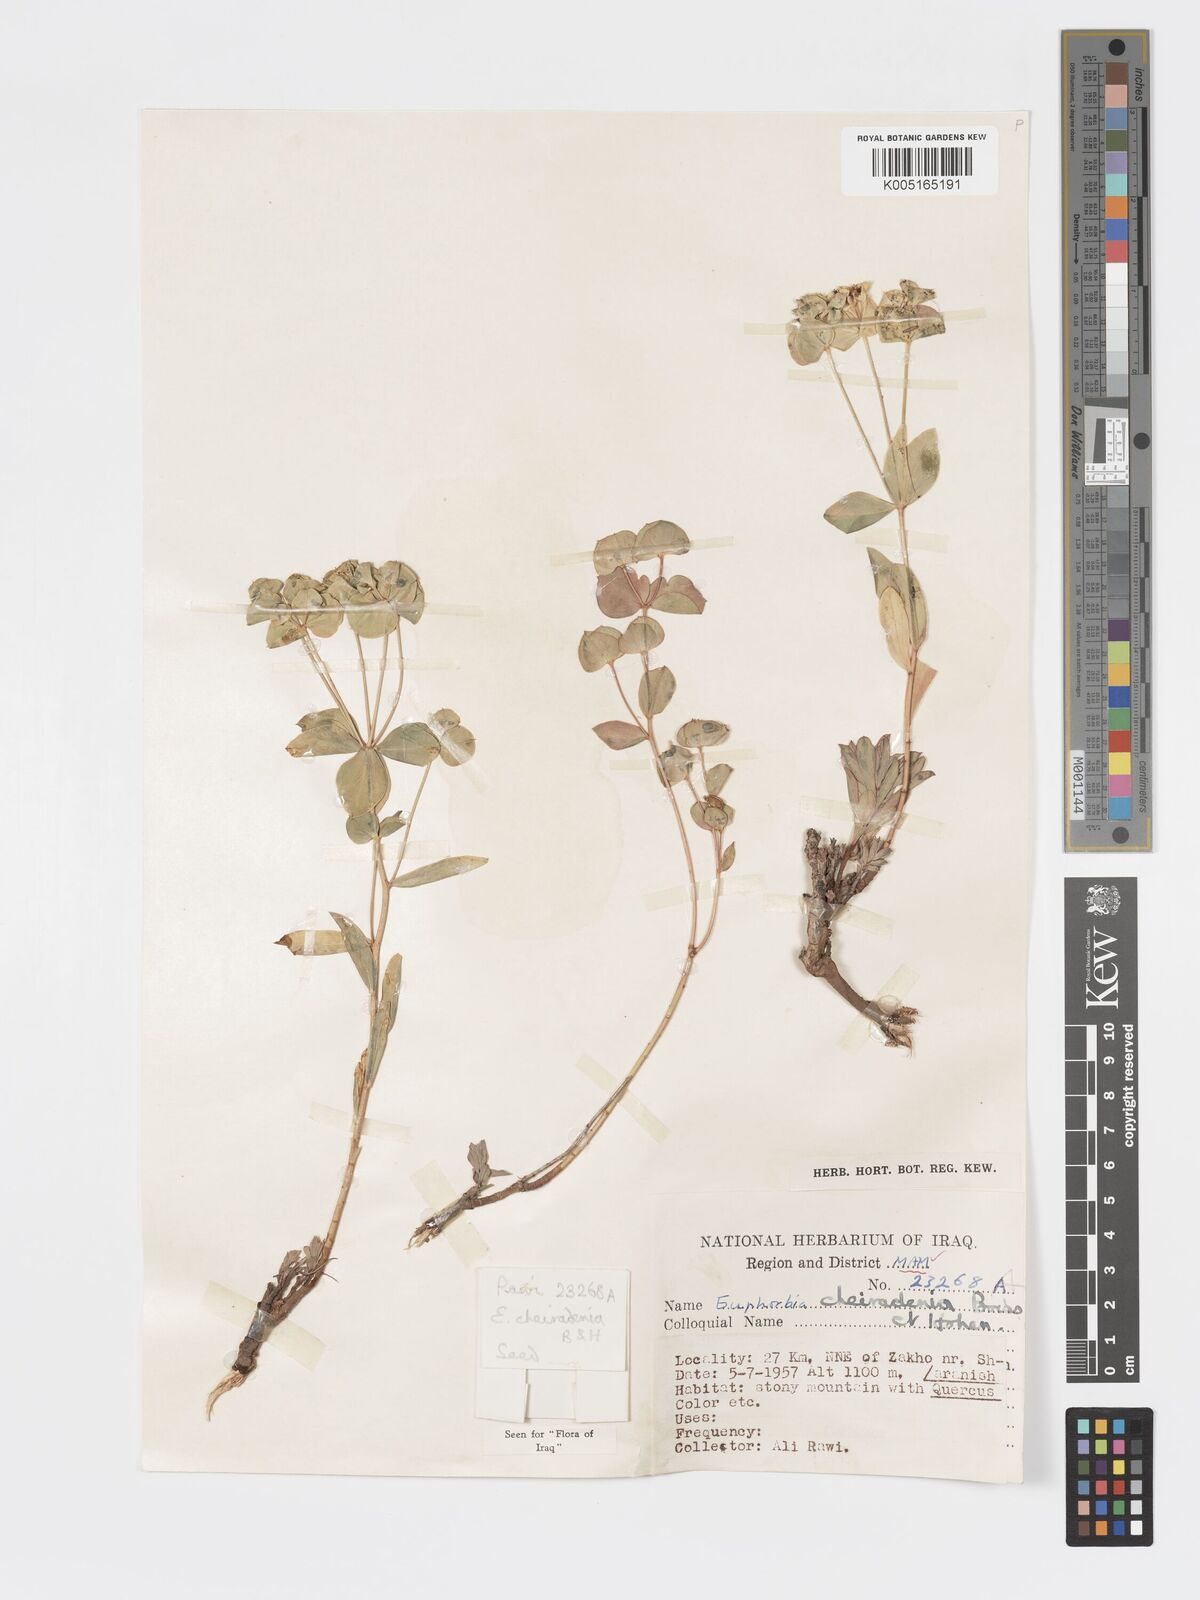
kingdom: Plantae
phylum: Tracheophyta
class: Magnoliopsida
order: Malpighiales
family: Euphorbiaceae
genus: Euphorbia
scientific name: Euphorbia cheiradenia
